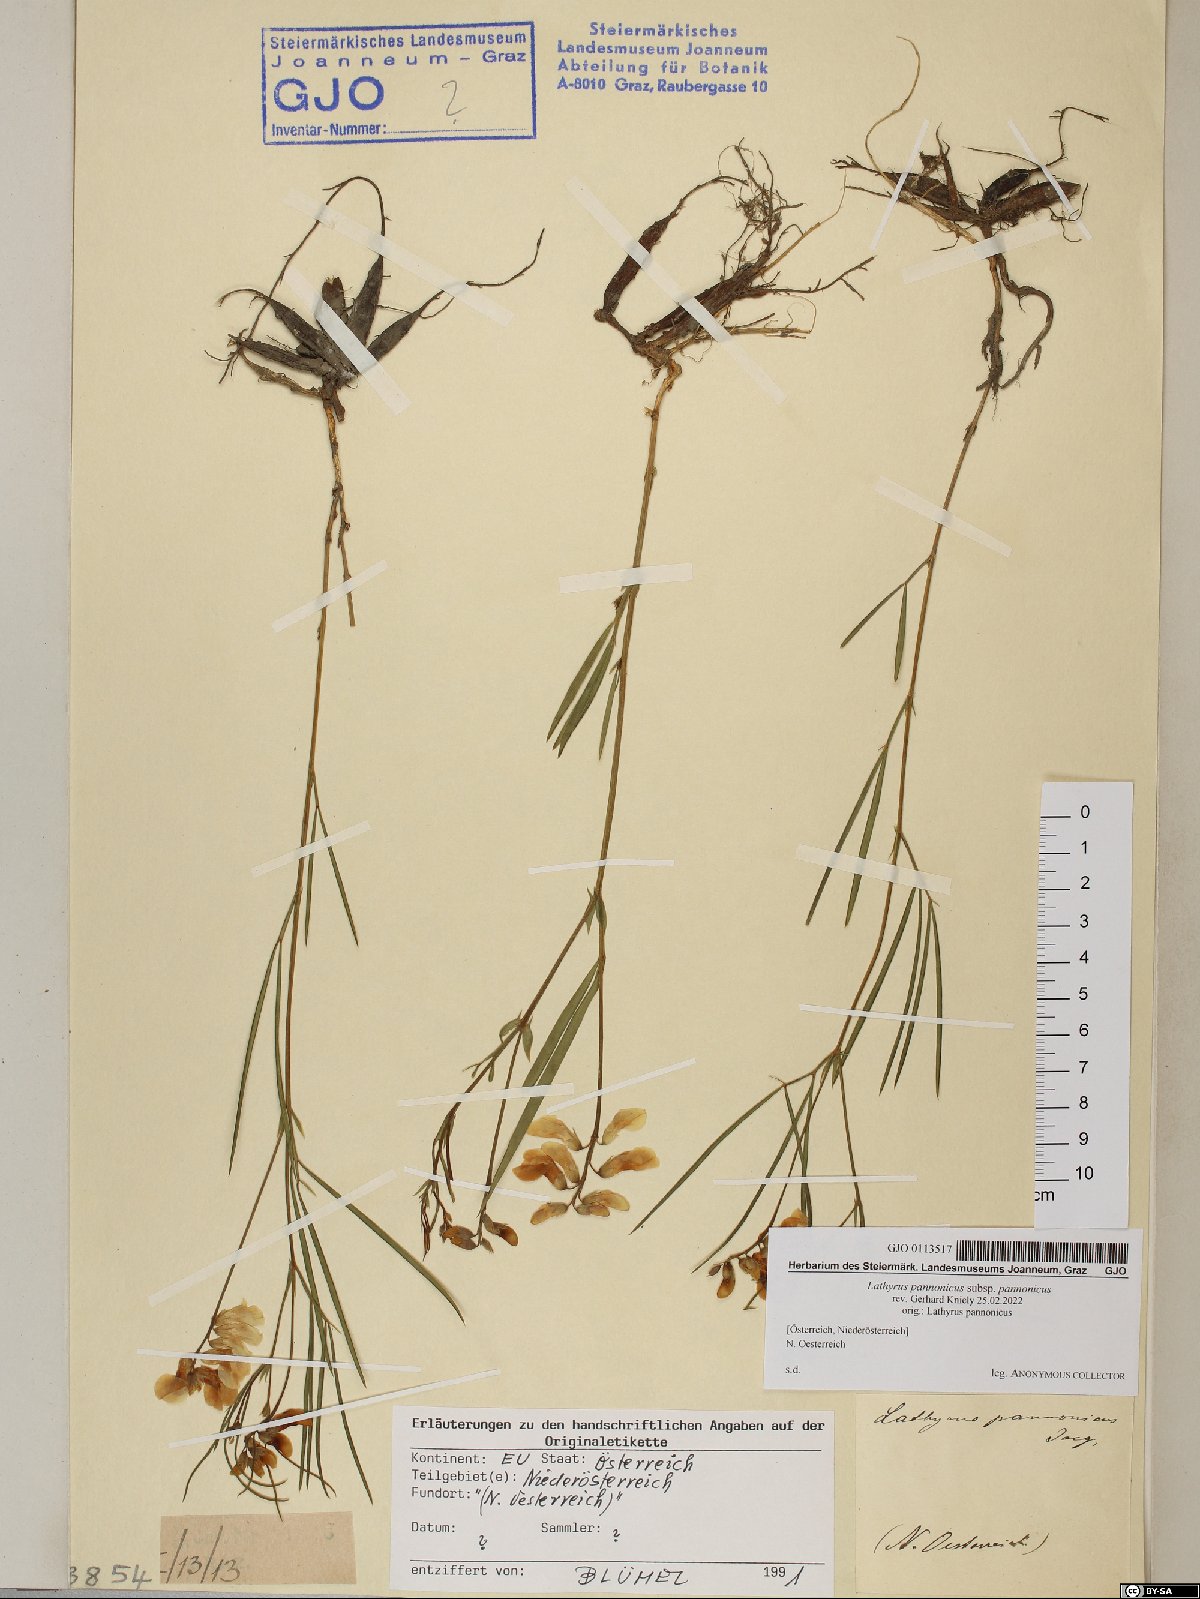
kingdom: Plantae
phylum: Tracheophyta
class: Magnoliopsida
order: Fabales
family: Fabaceae
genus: Lathyrus
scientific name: Lathyrus pannonicus
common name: Pea
